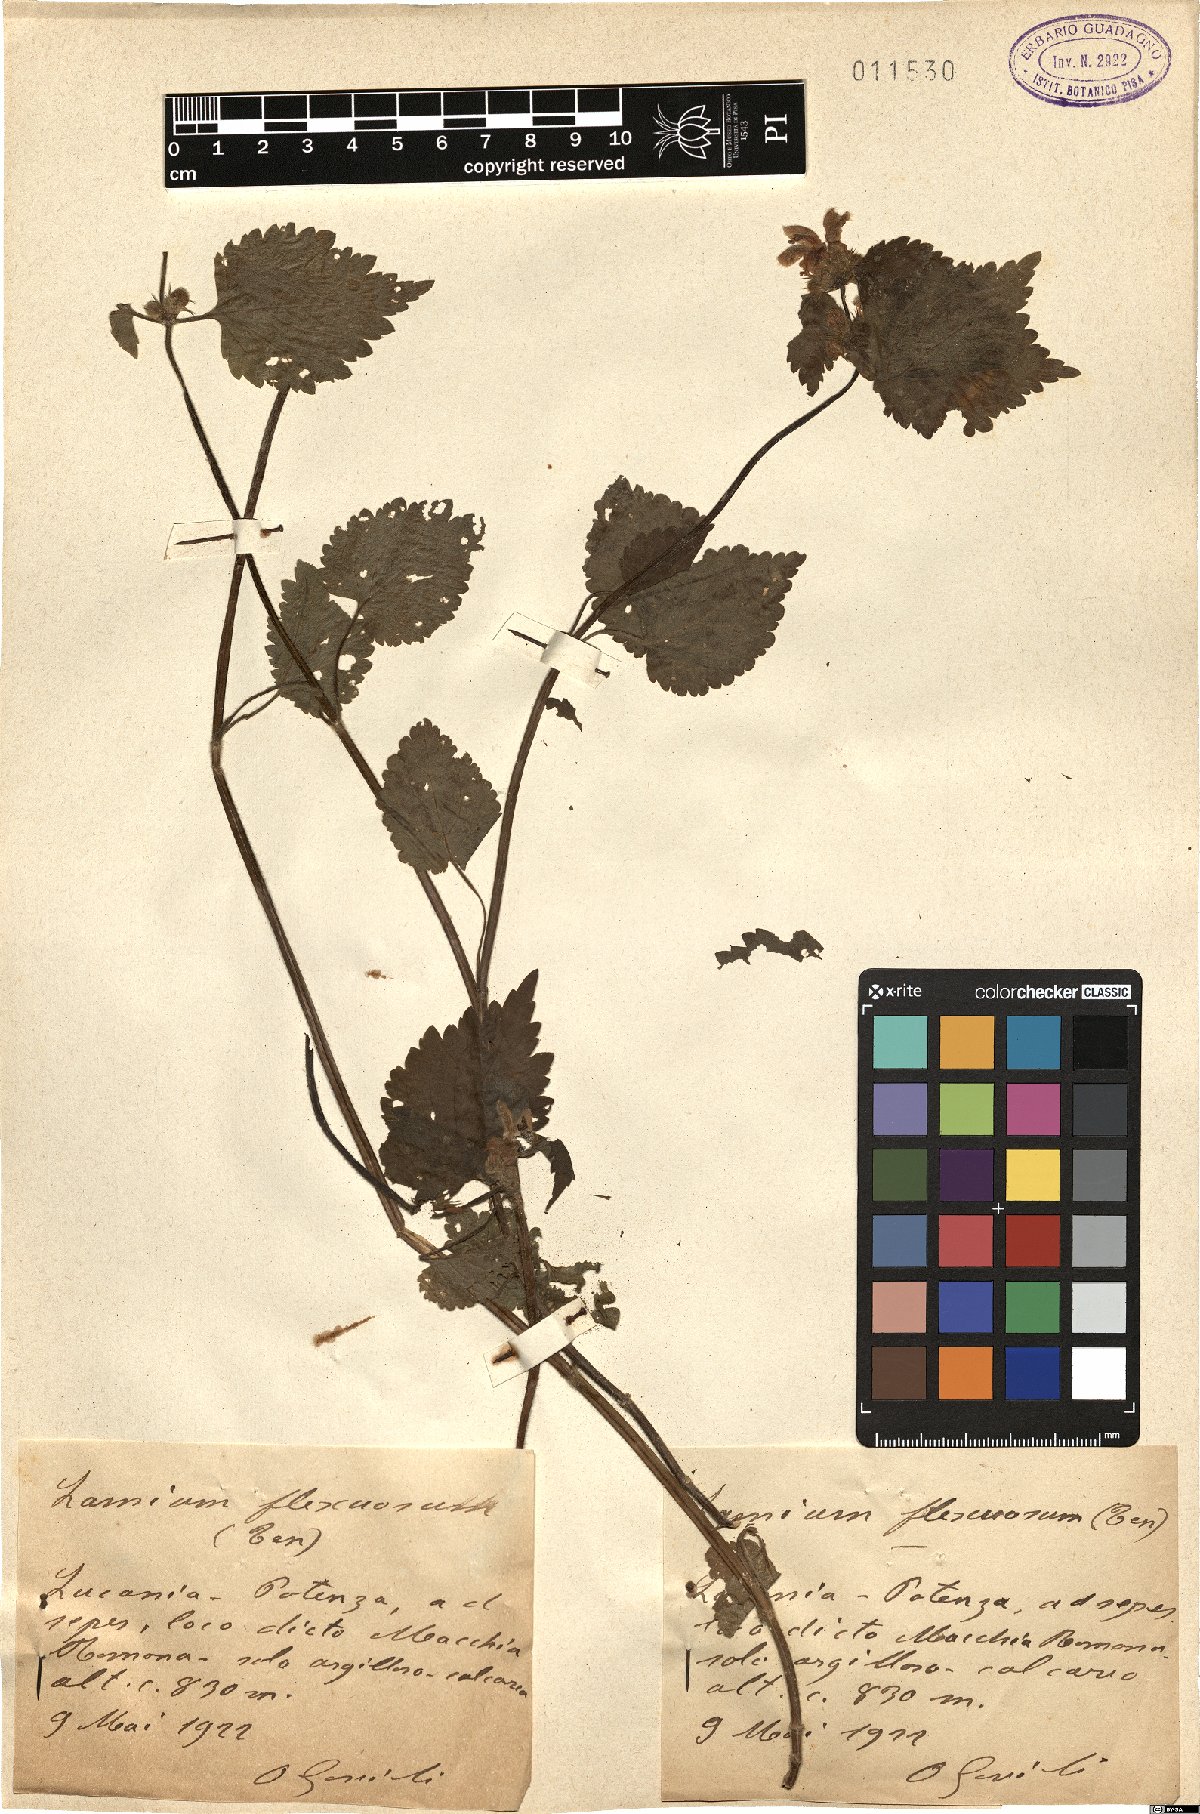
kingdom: Plantae
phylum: Tracheophyta
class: Magnoliopsida
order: Lamiales
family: Lamiaceae
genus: Lamium
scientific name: Lamium flexuosum
